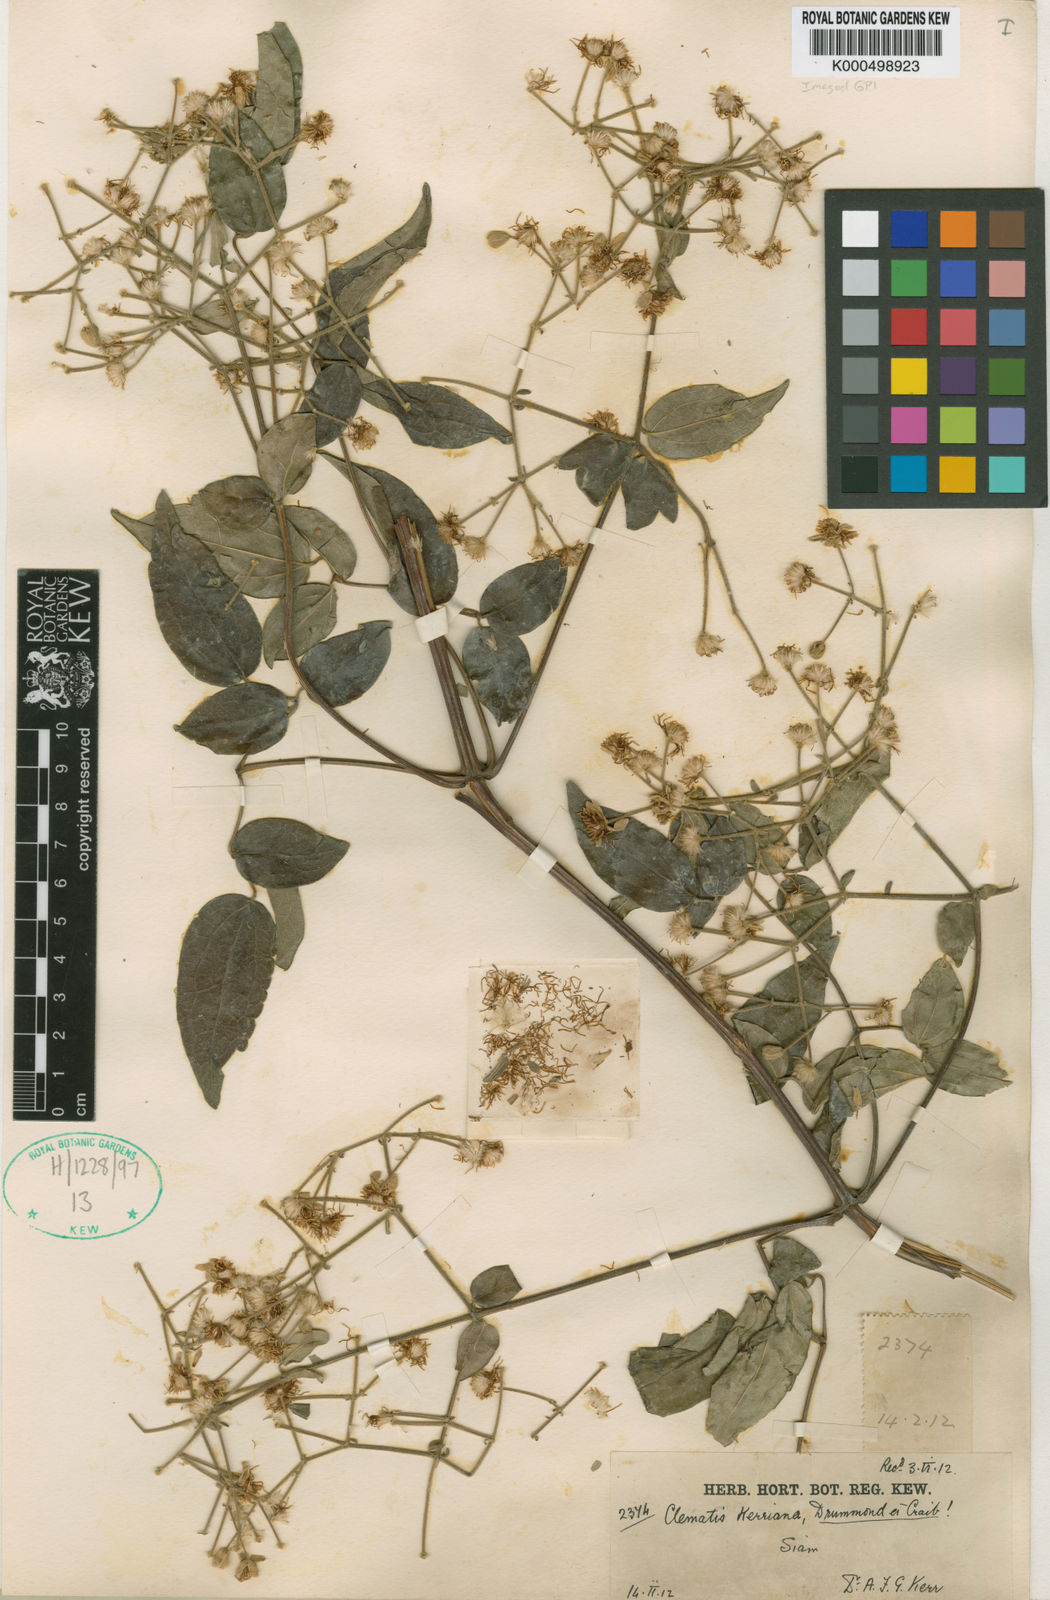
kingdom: Plantae
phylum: Tracheophyta
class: Magnoliopsida
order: Ranunculales
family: Ranunculaceae
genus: Clematis
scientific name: Clematis subumbellata
